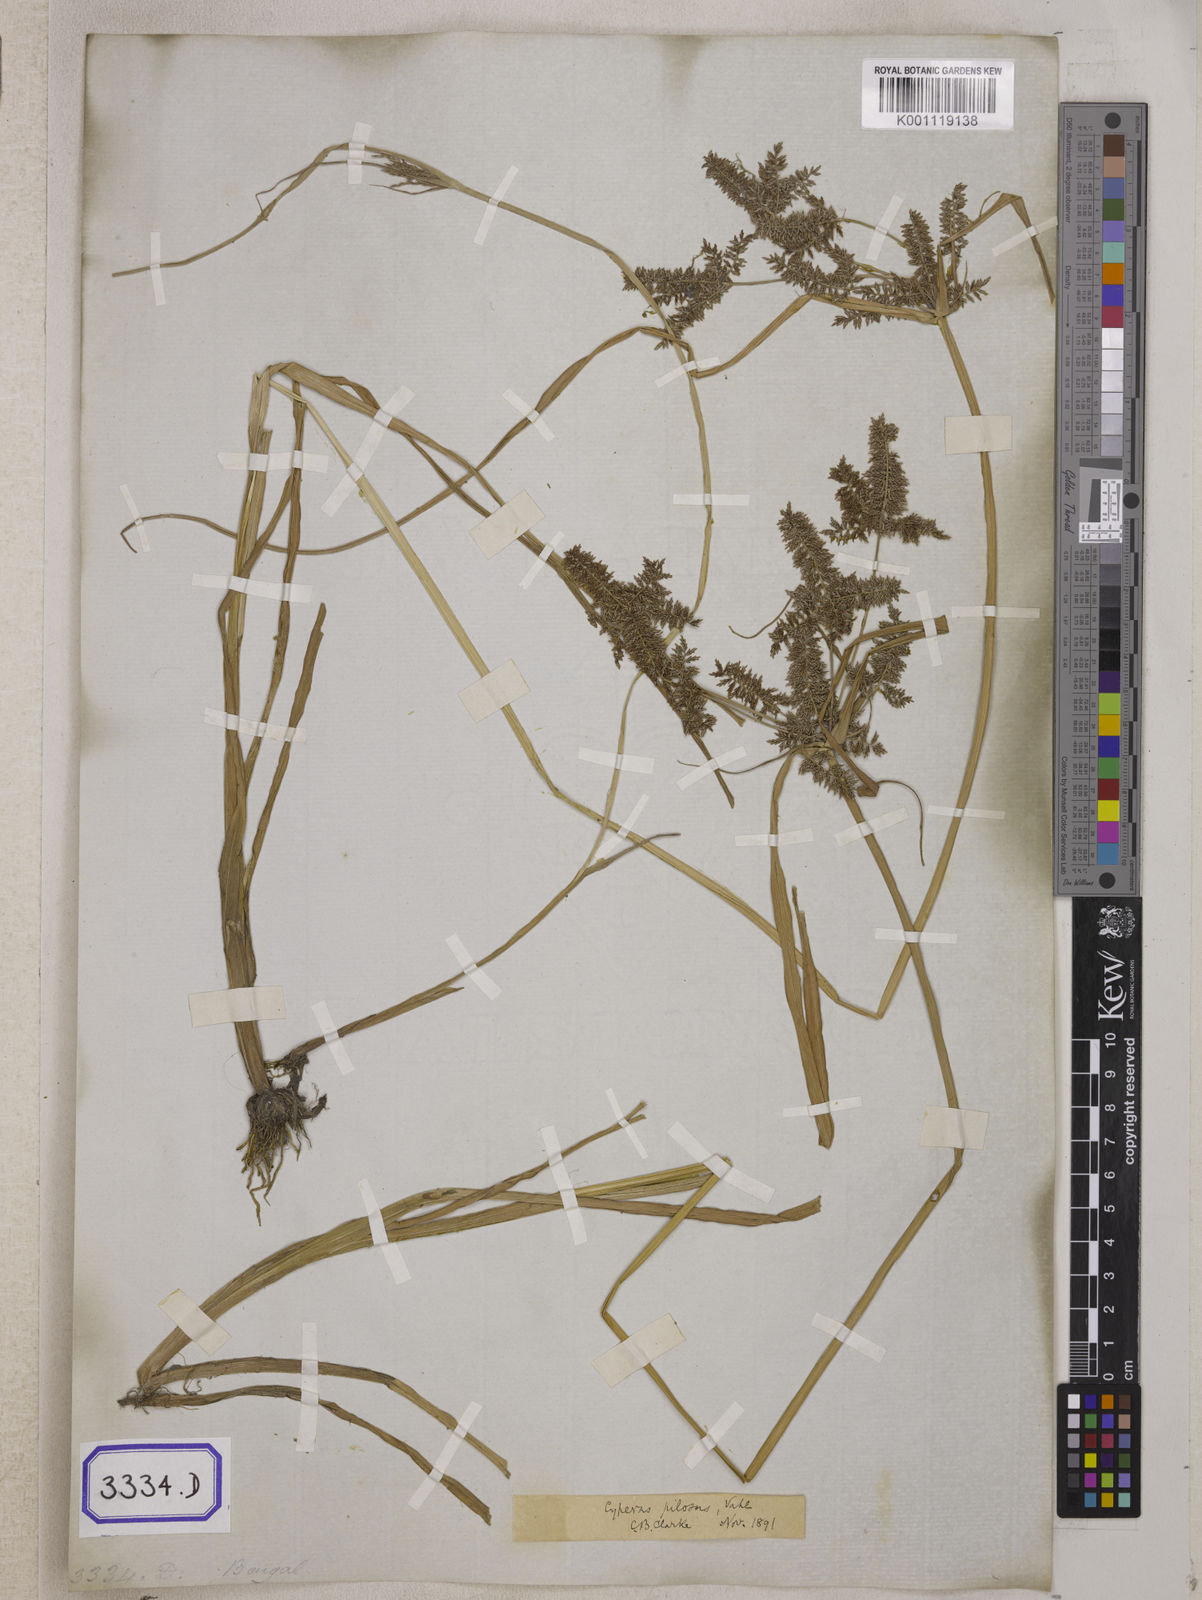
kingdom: Plantae
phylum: Tracheophyta
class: Liliopsida
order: Poales
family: Cyperaceae
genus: Cyperus
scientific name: Cyperus
